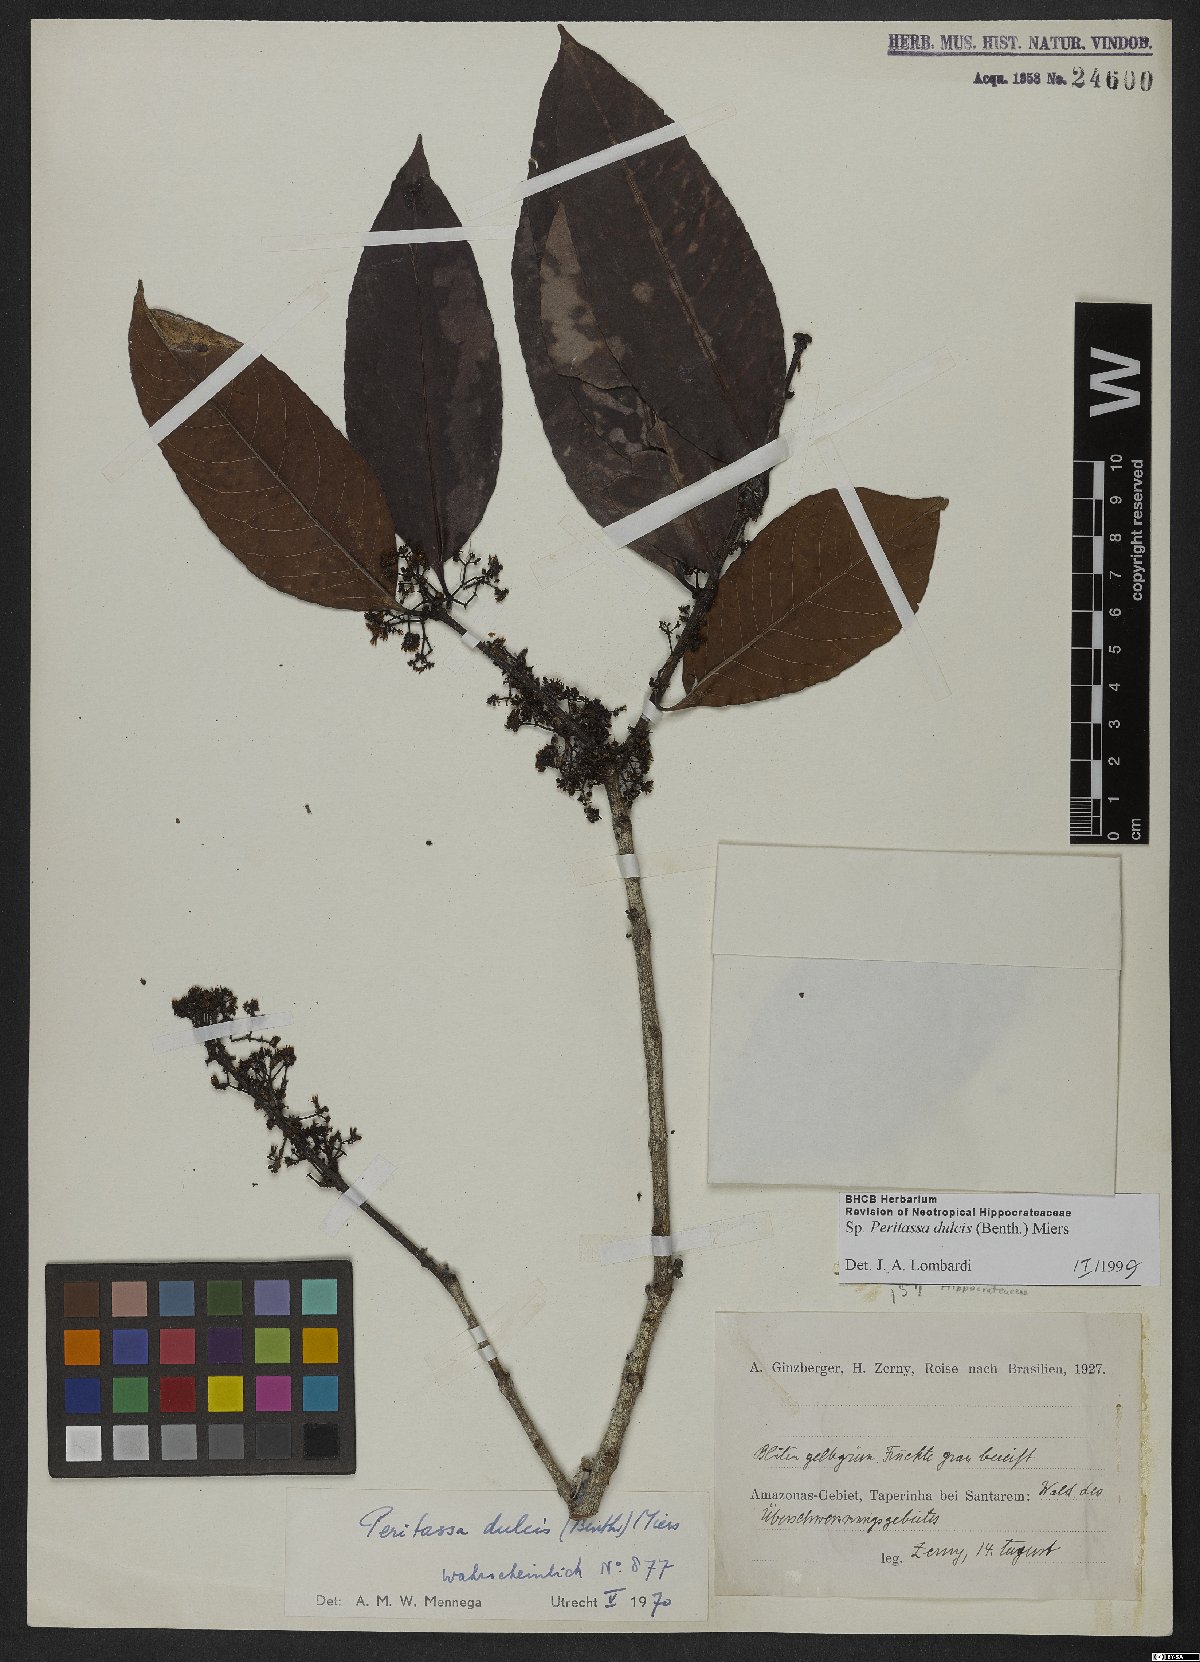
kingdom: Plantae
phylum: Tracheophyta
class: Magnoliopsida
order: Celastrales
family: Celastraceae
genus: Peritassa
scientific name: Peritassa dulcis
